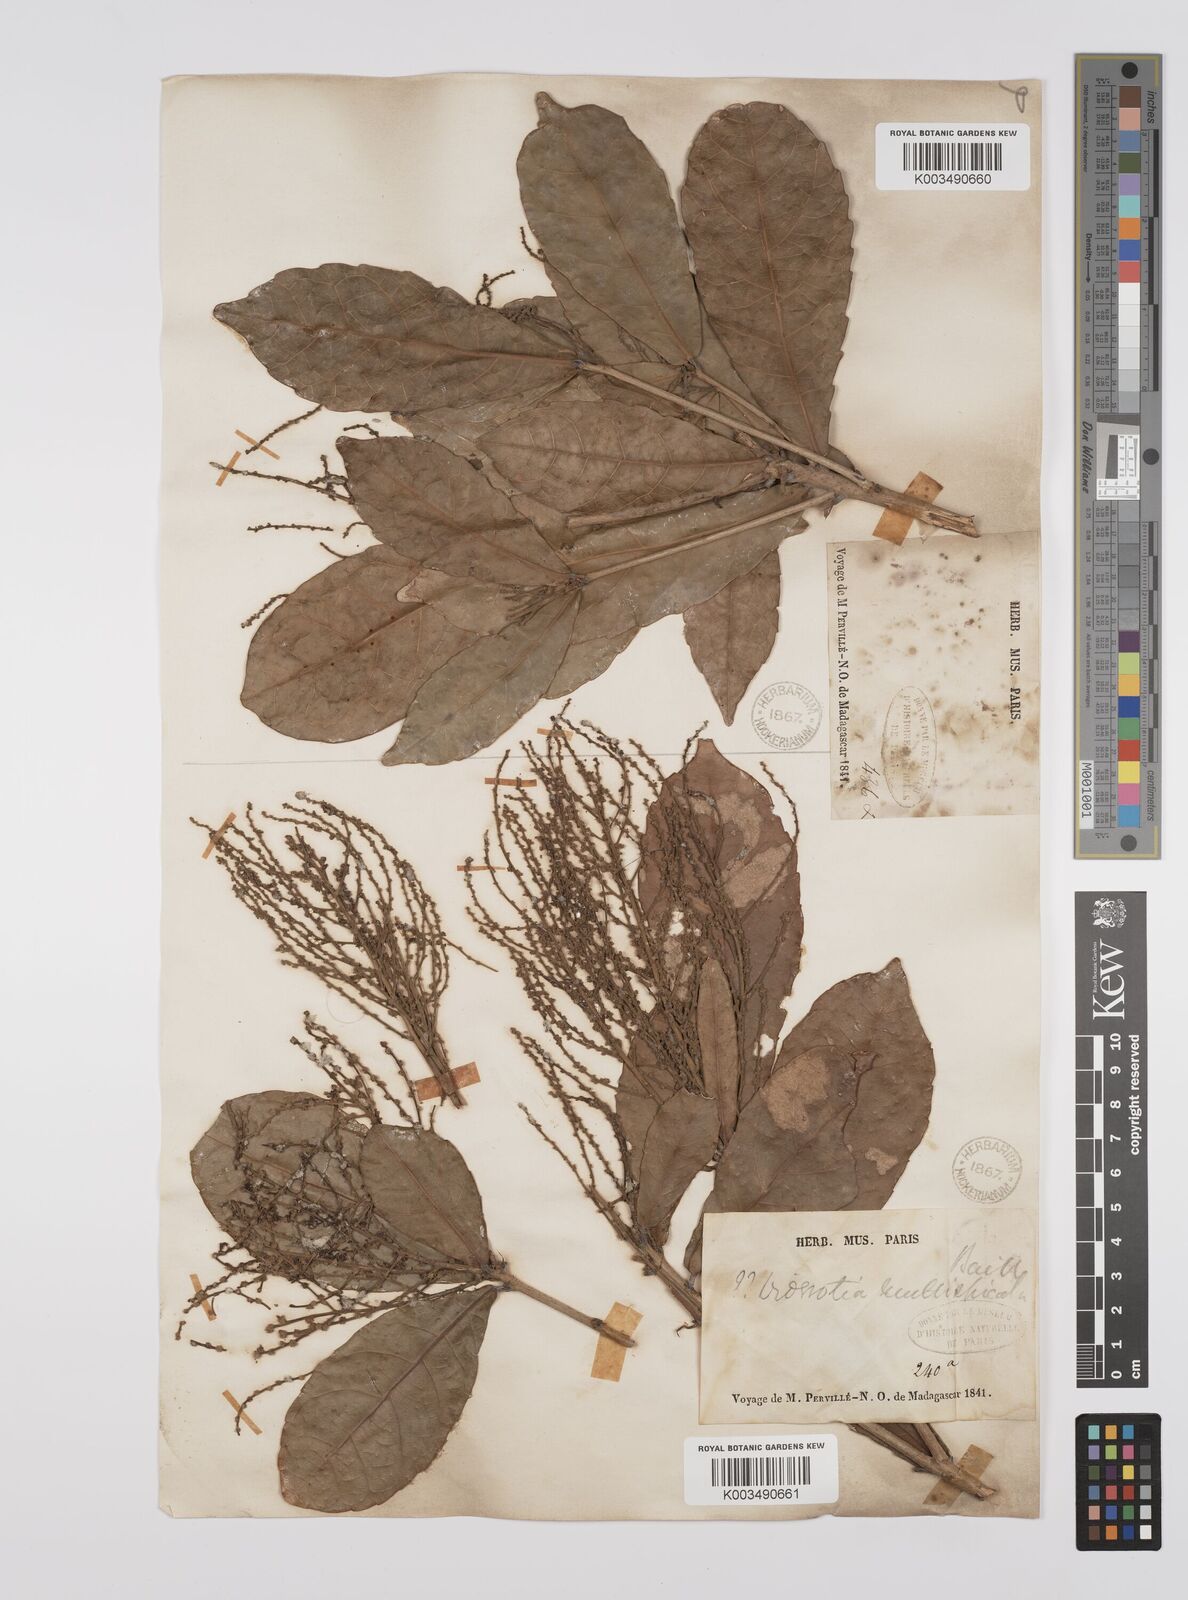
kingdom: Plantae
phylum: Tracheophyta
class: Magnoliopsida
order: Malpighiales
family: Euphorbiaceae
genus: Orfilea
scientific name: Orfilea multispicata
